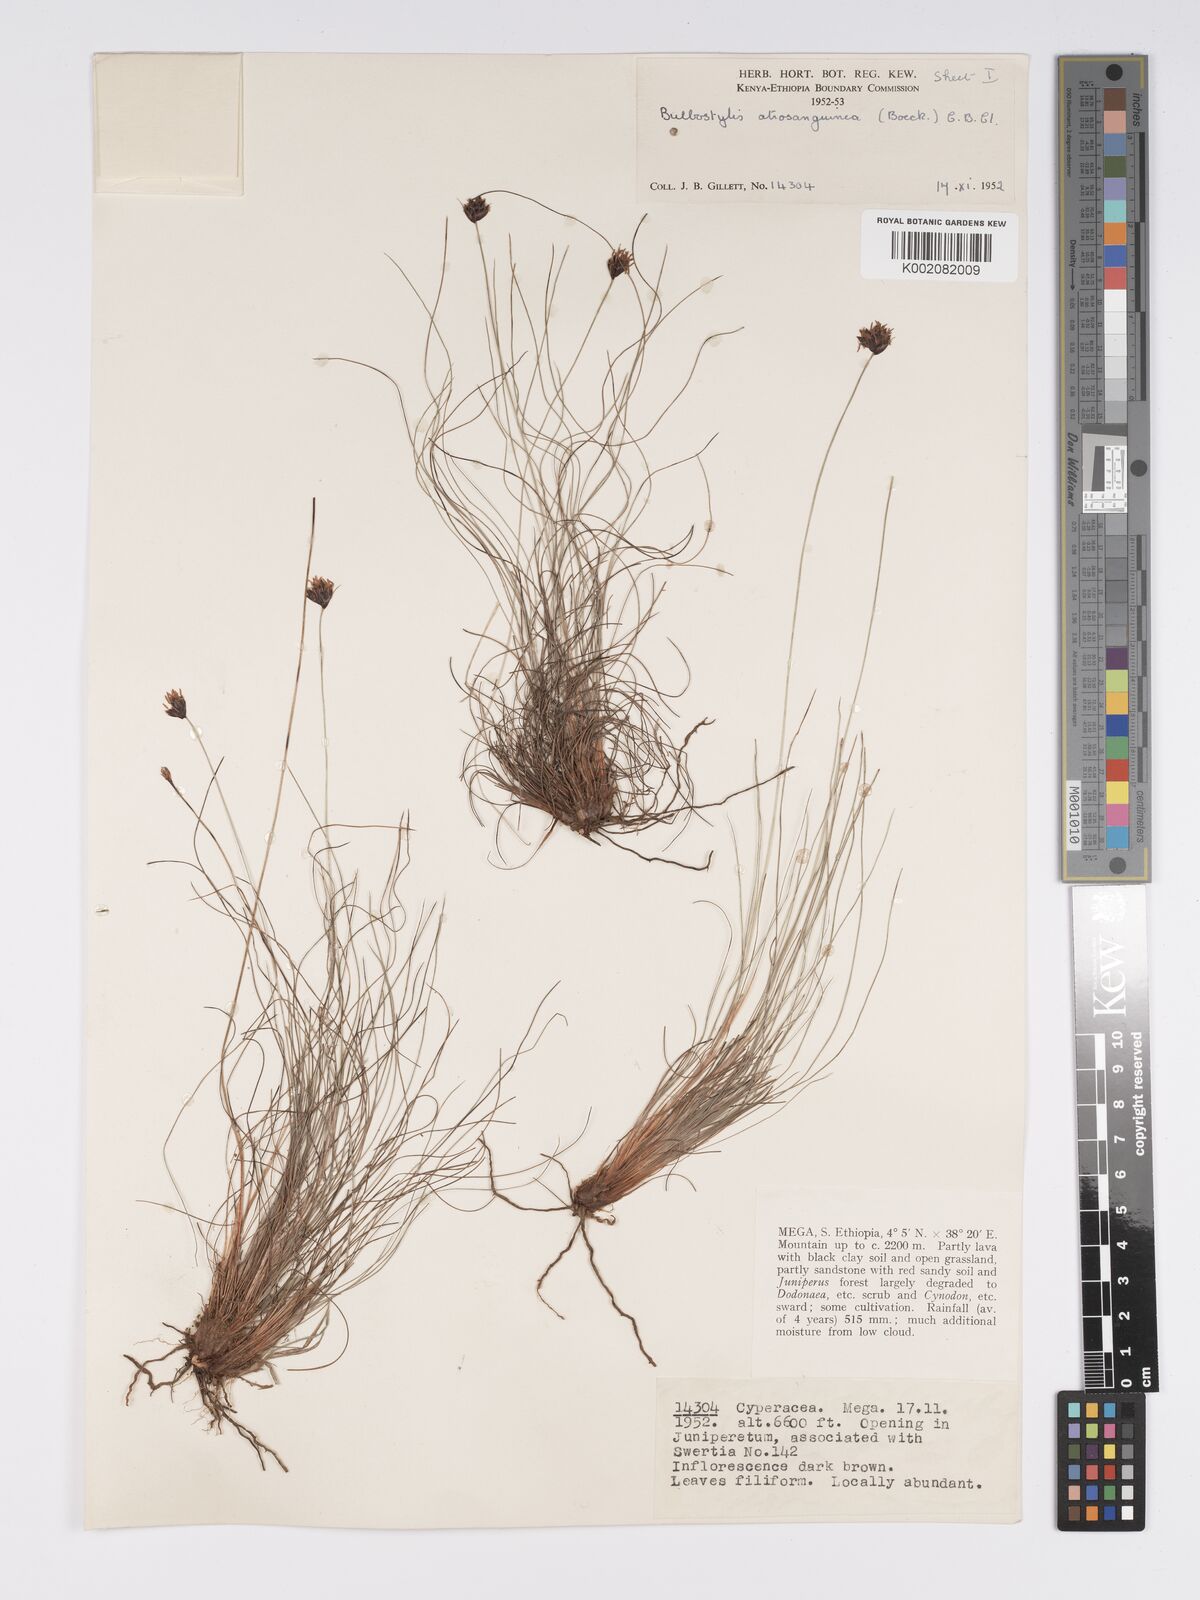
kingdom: Plantae
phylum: Tracheophyta
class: Liliopsida
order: Poales
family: Cyperaceae
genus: Bulbostylis
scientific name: Bulbostylis
